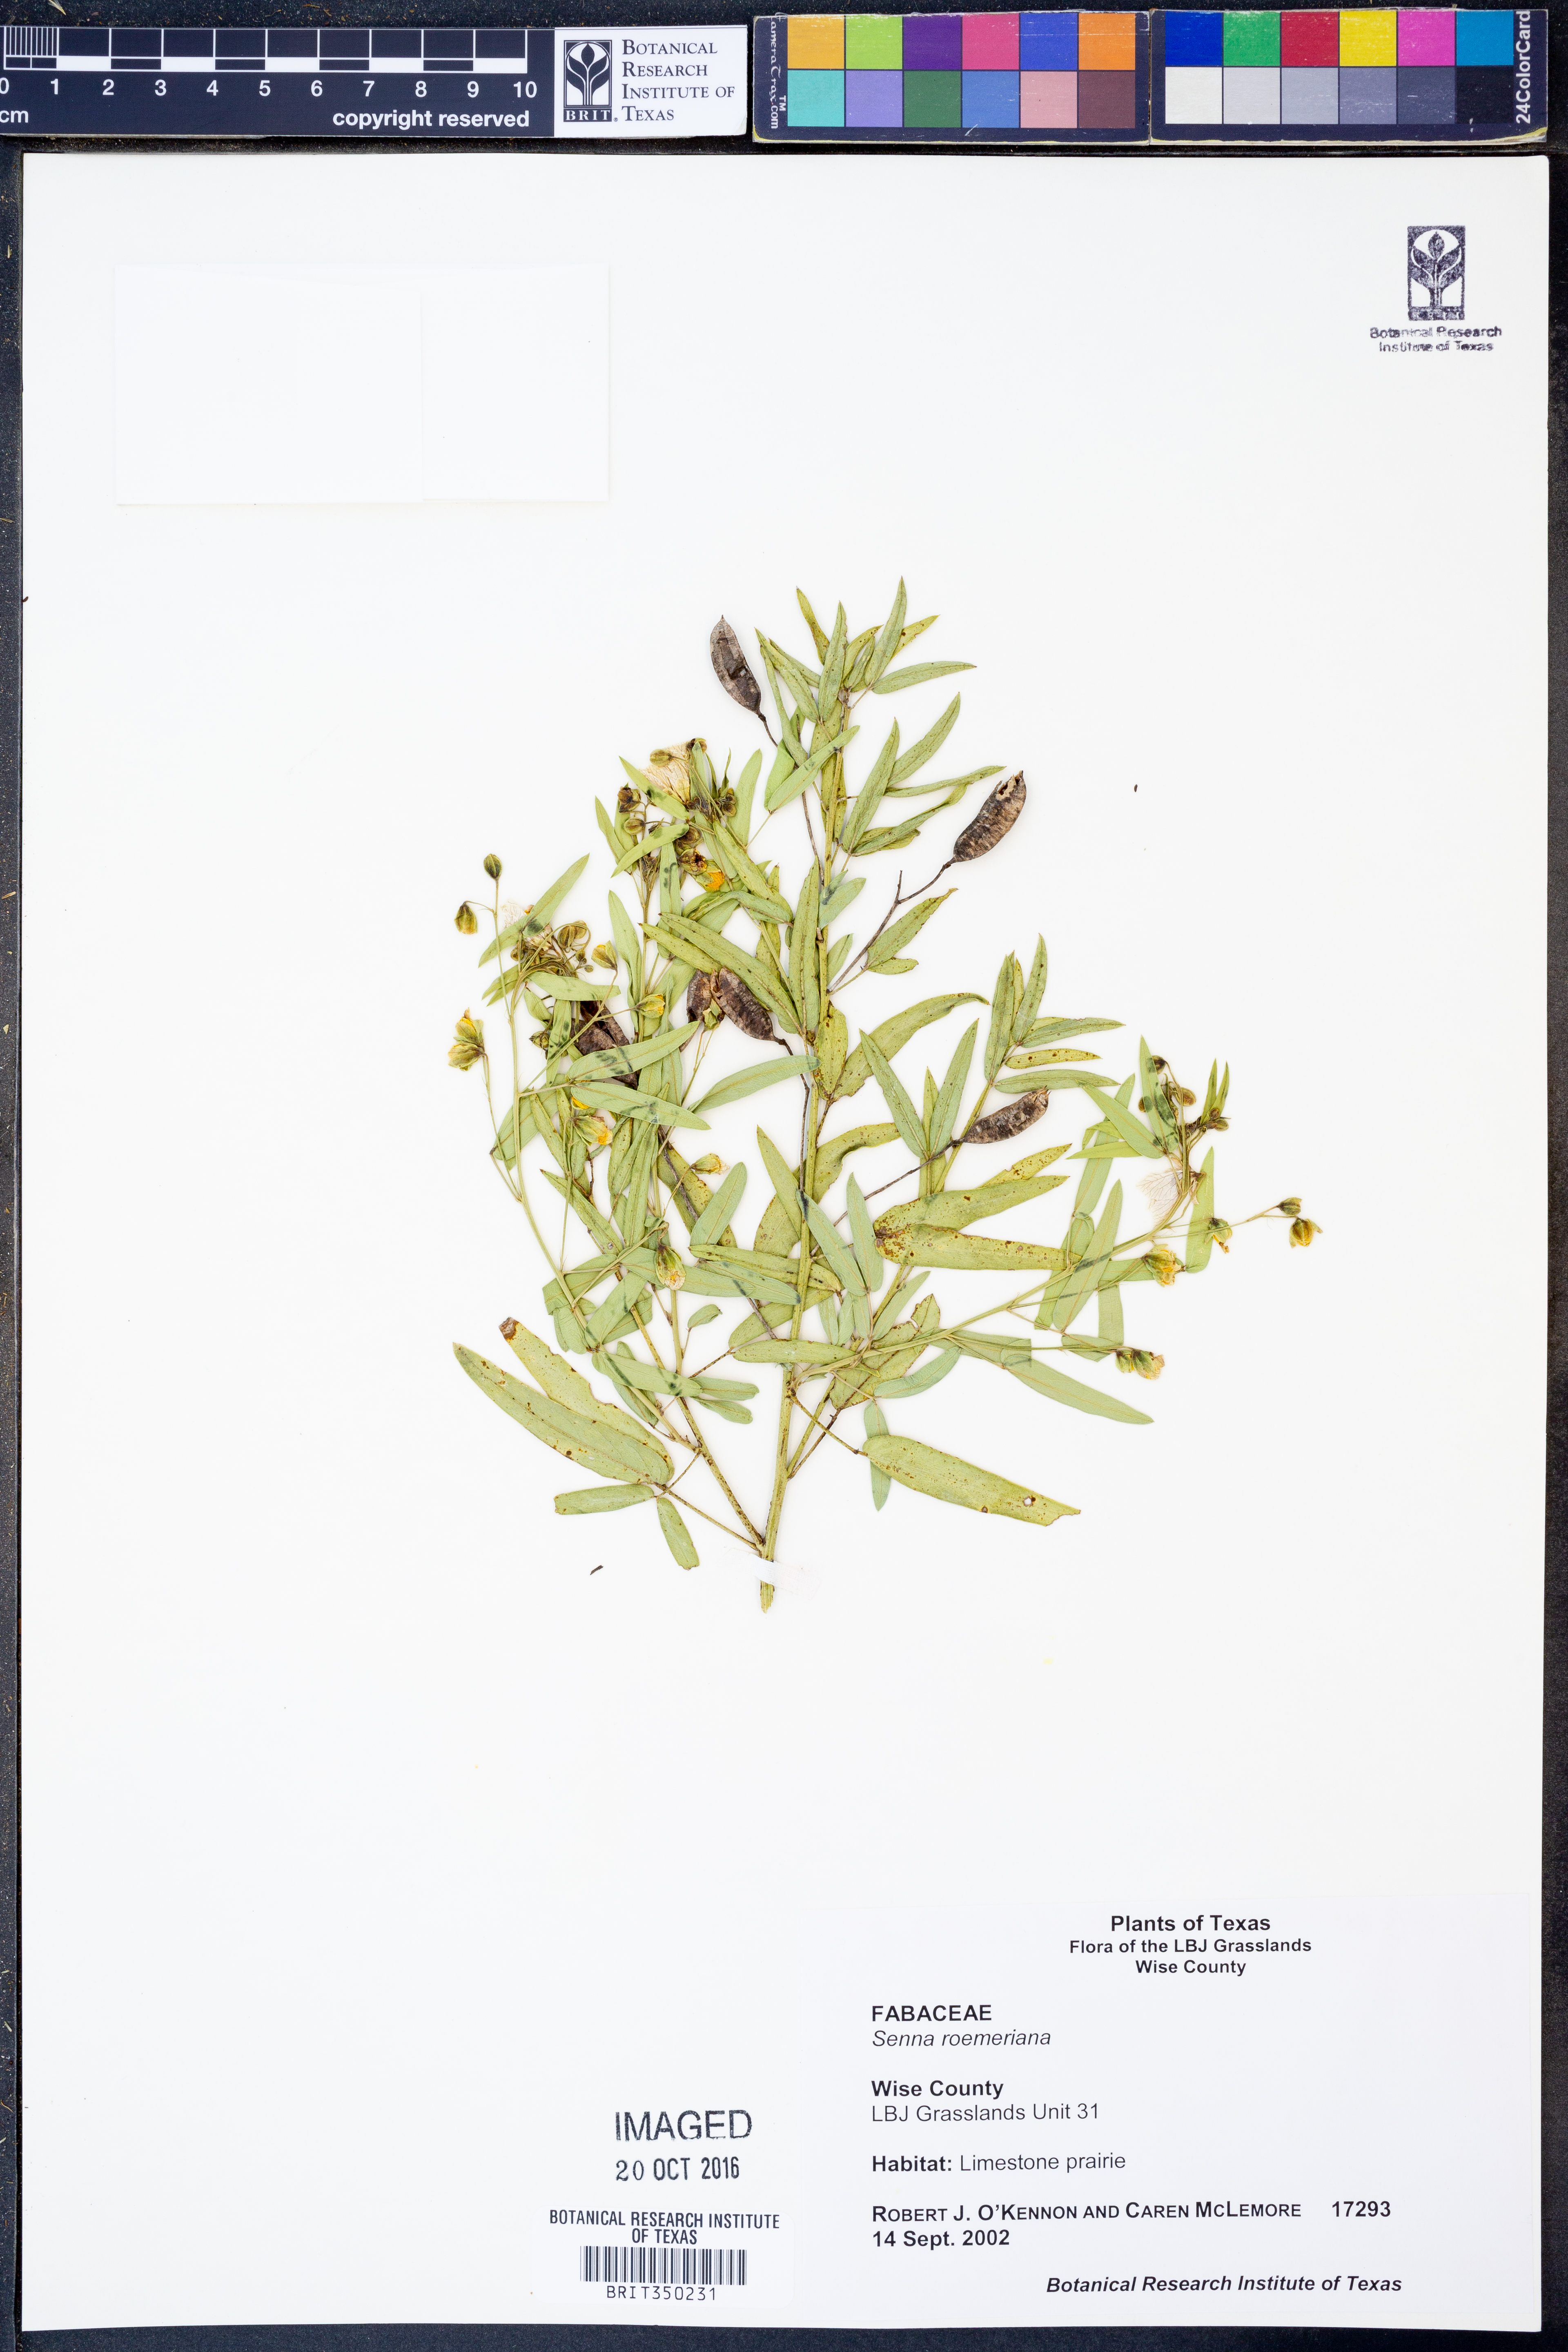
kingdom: Plantae
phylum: Tracheophyta
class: Magnoliopsida
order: Fabales
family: Fabaceae
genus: Senna
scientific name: Senna roemeriana
